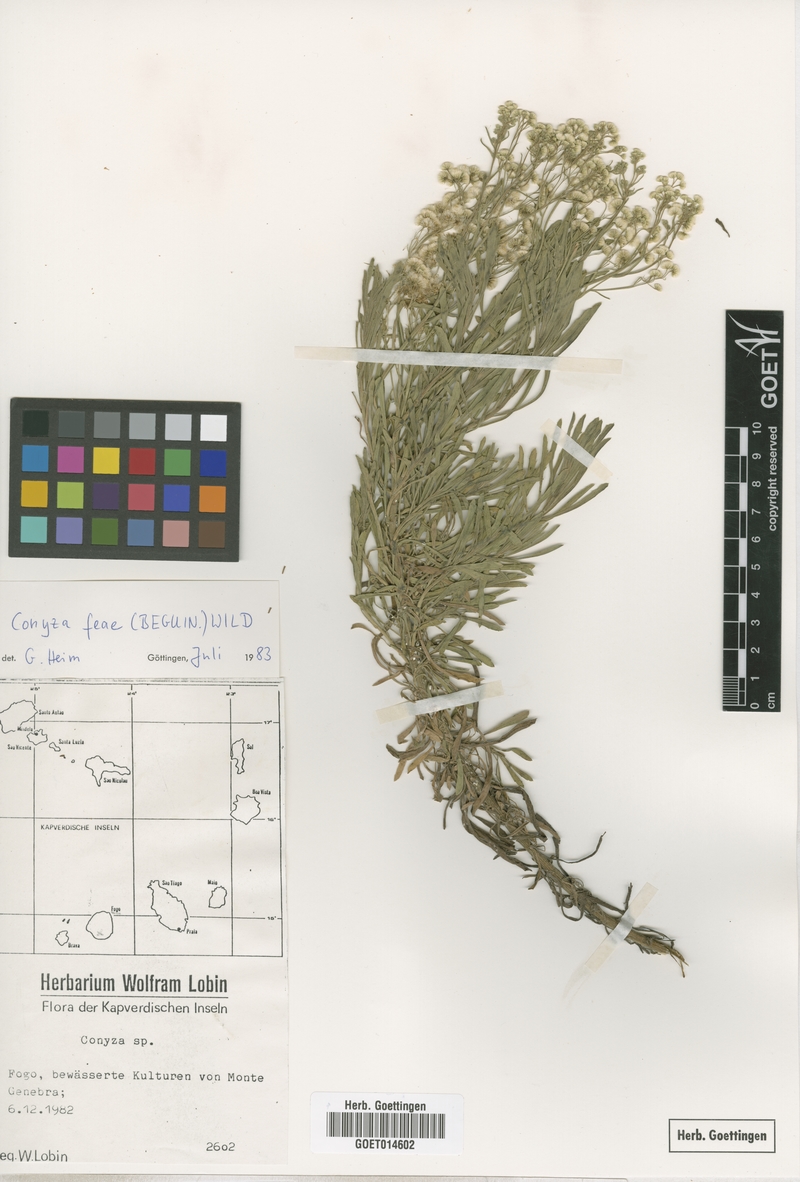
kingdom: Plantae
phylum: Tracheophyta
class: Magnoliopsida
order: Asterales
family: Asteraceae
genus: Nidorella
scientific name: Nidorella nobrei
